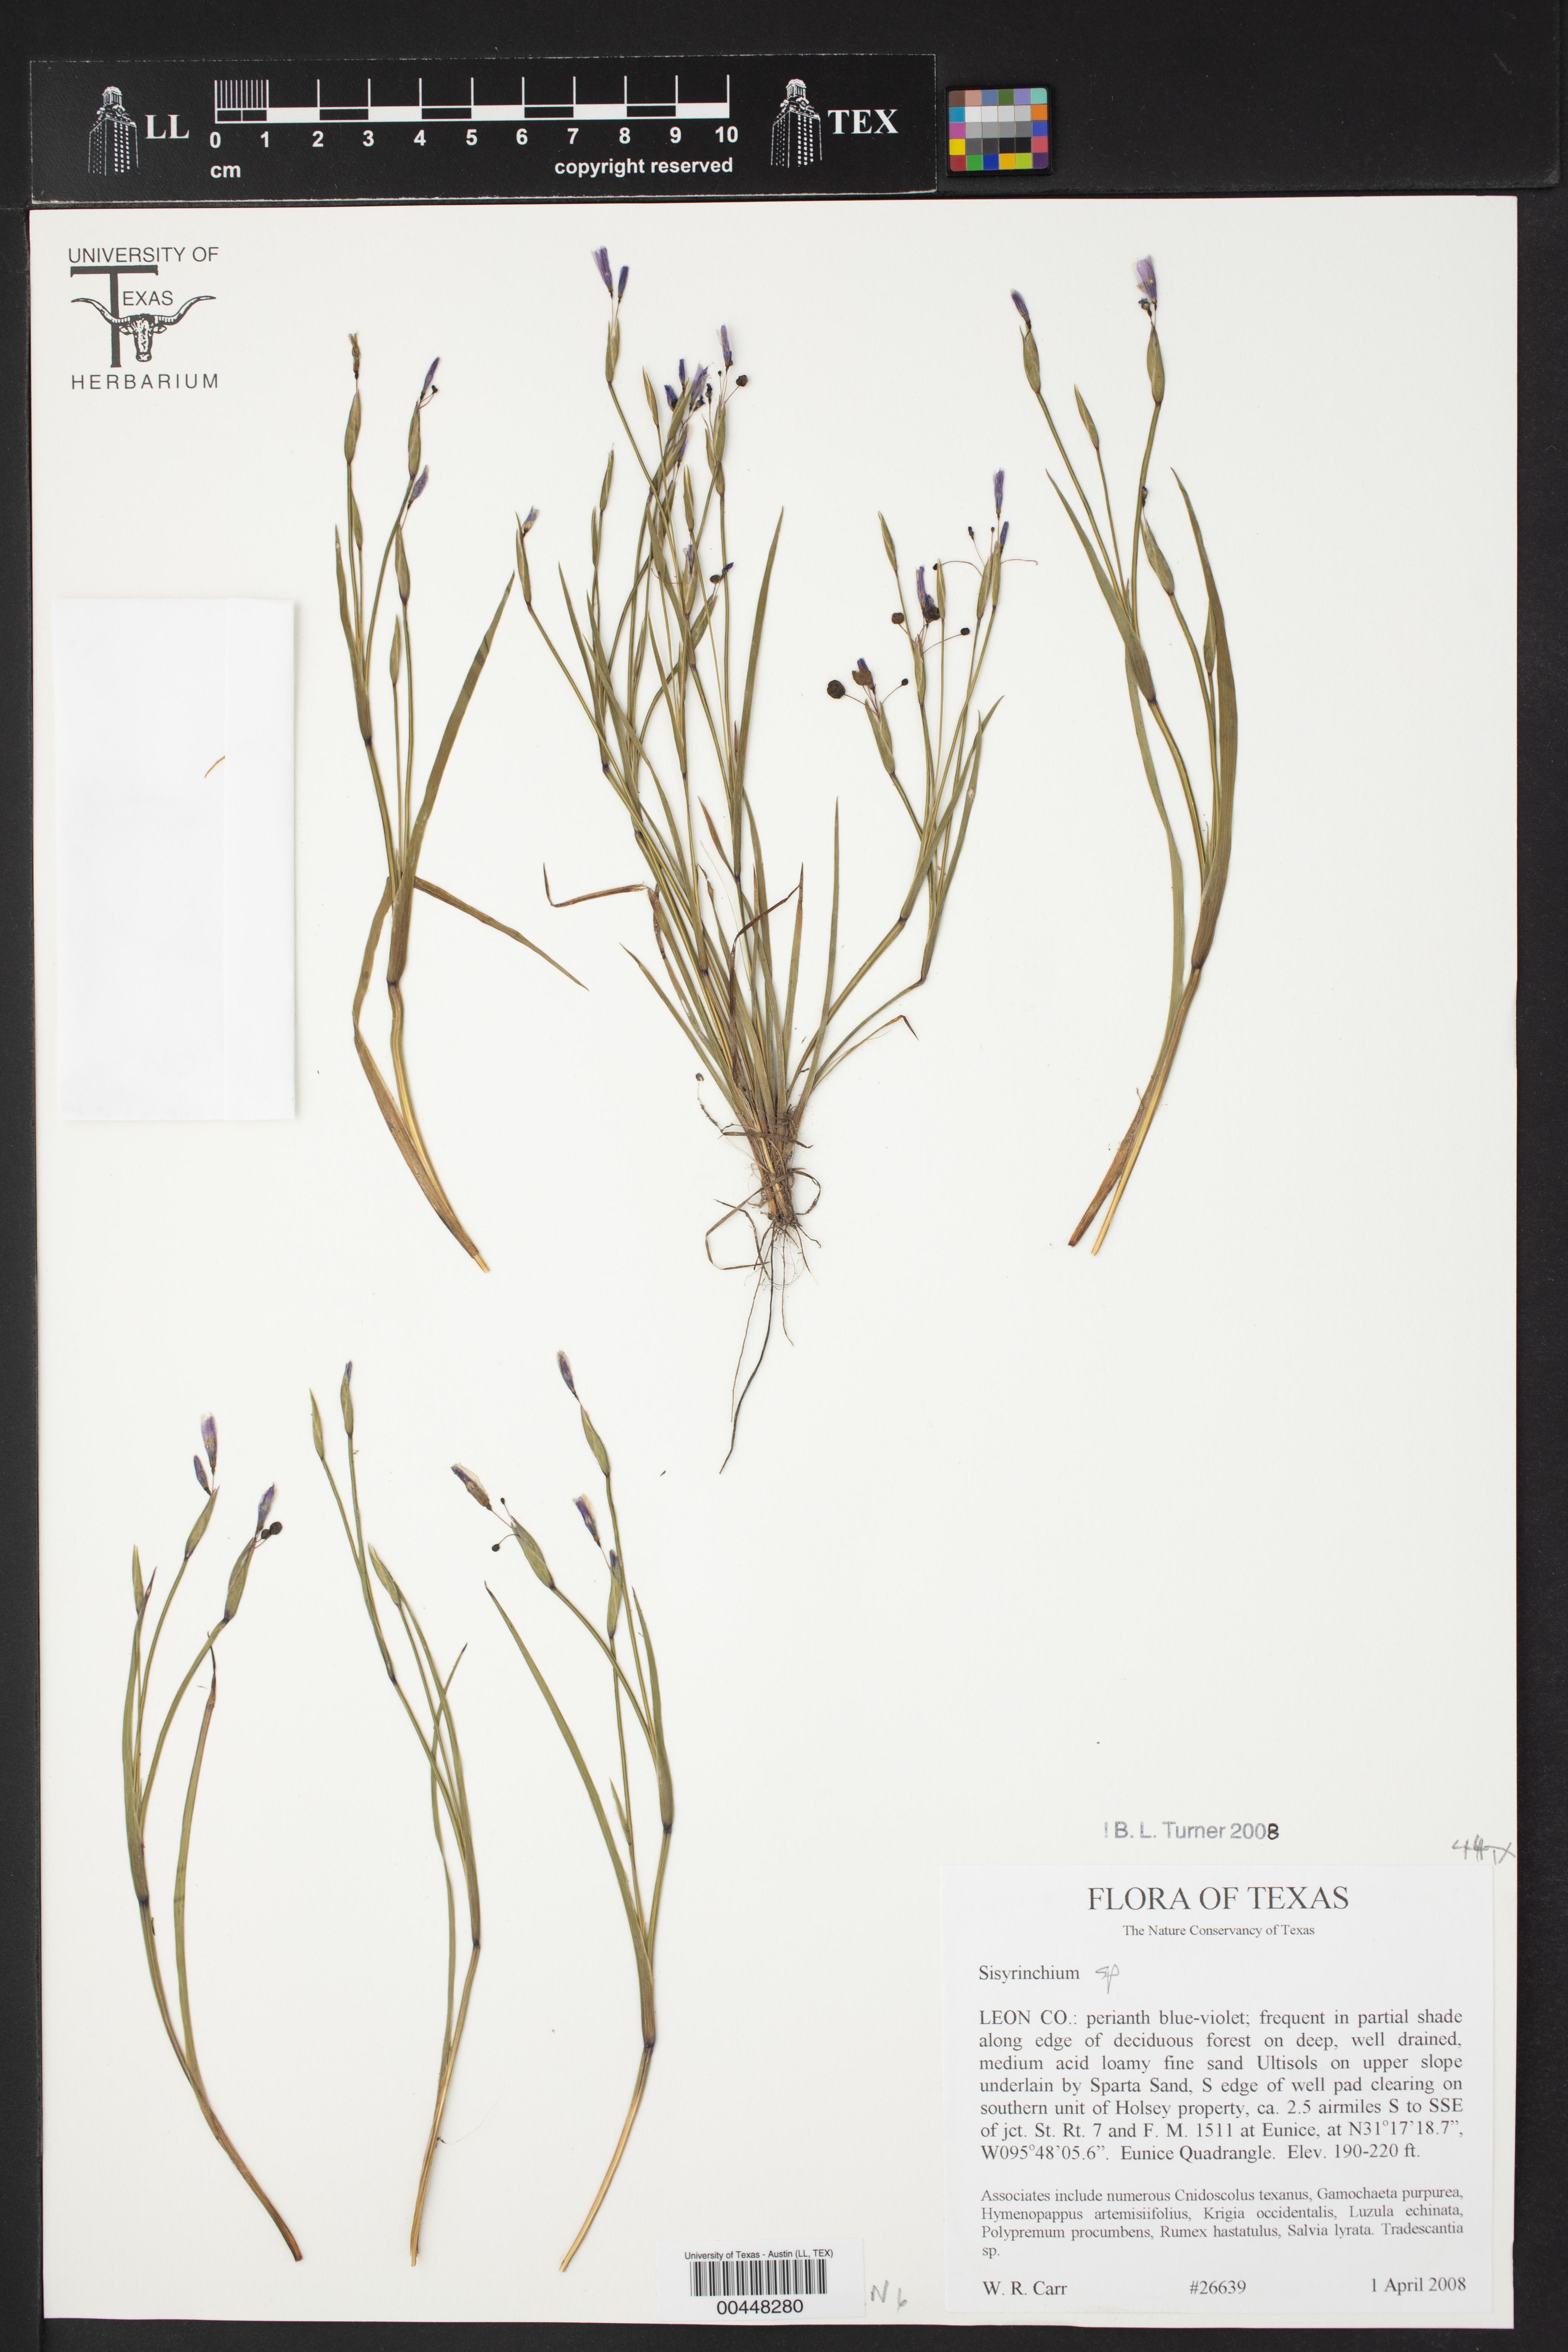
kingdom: Plantae
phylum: Tracheophyta
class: Liliopsida
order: Asparagales
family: Iridaceae
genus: Sisyrinchium
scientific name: Sisyrinchium
